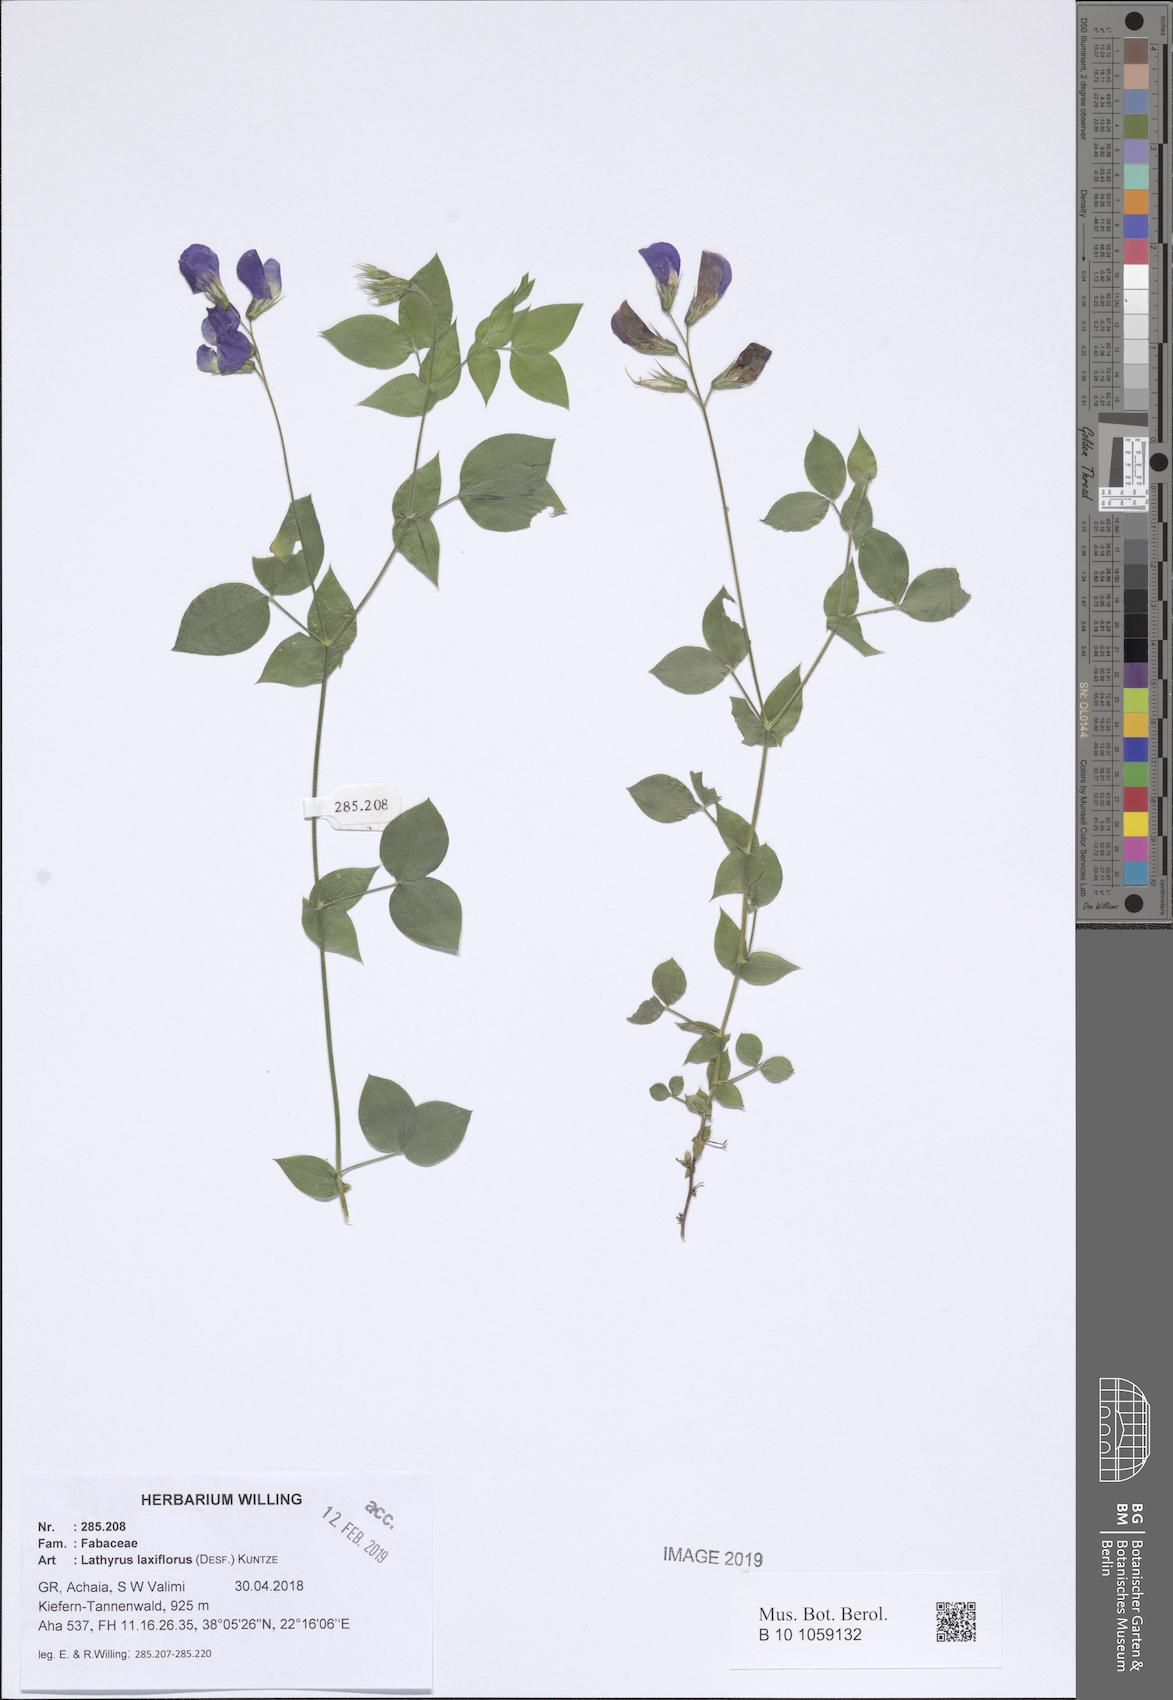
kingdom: Plantae
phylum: Tracheophyta
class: Magnoliopsida
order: Fabales
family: Fabaceae
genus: Lathyrus
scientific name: Lathyrus laxiflorus
